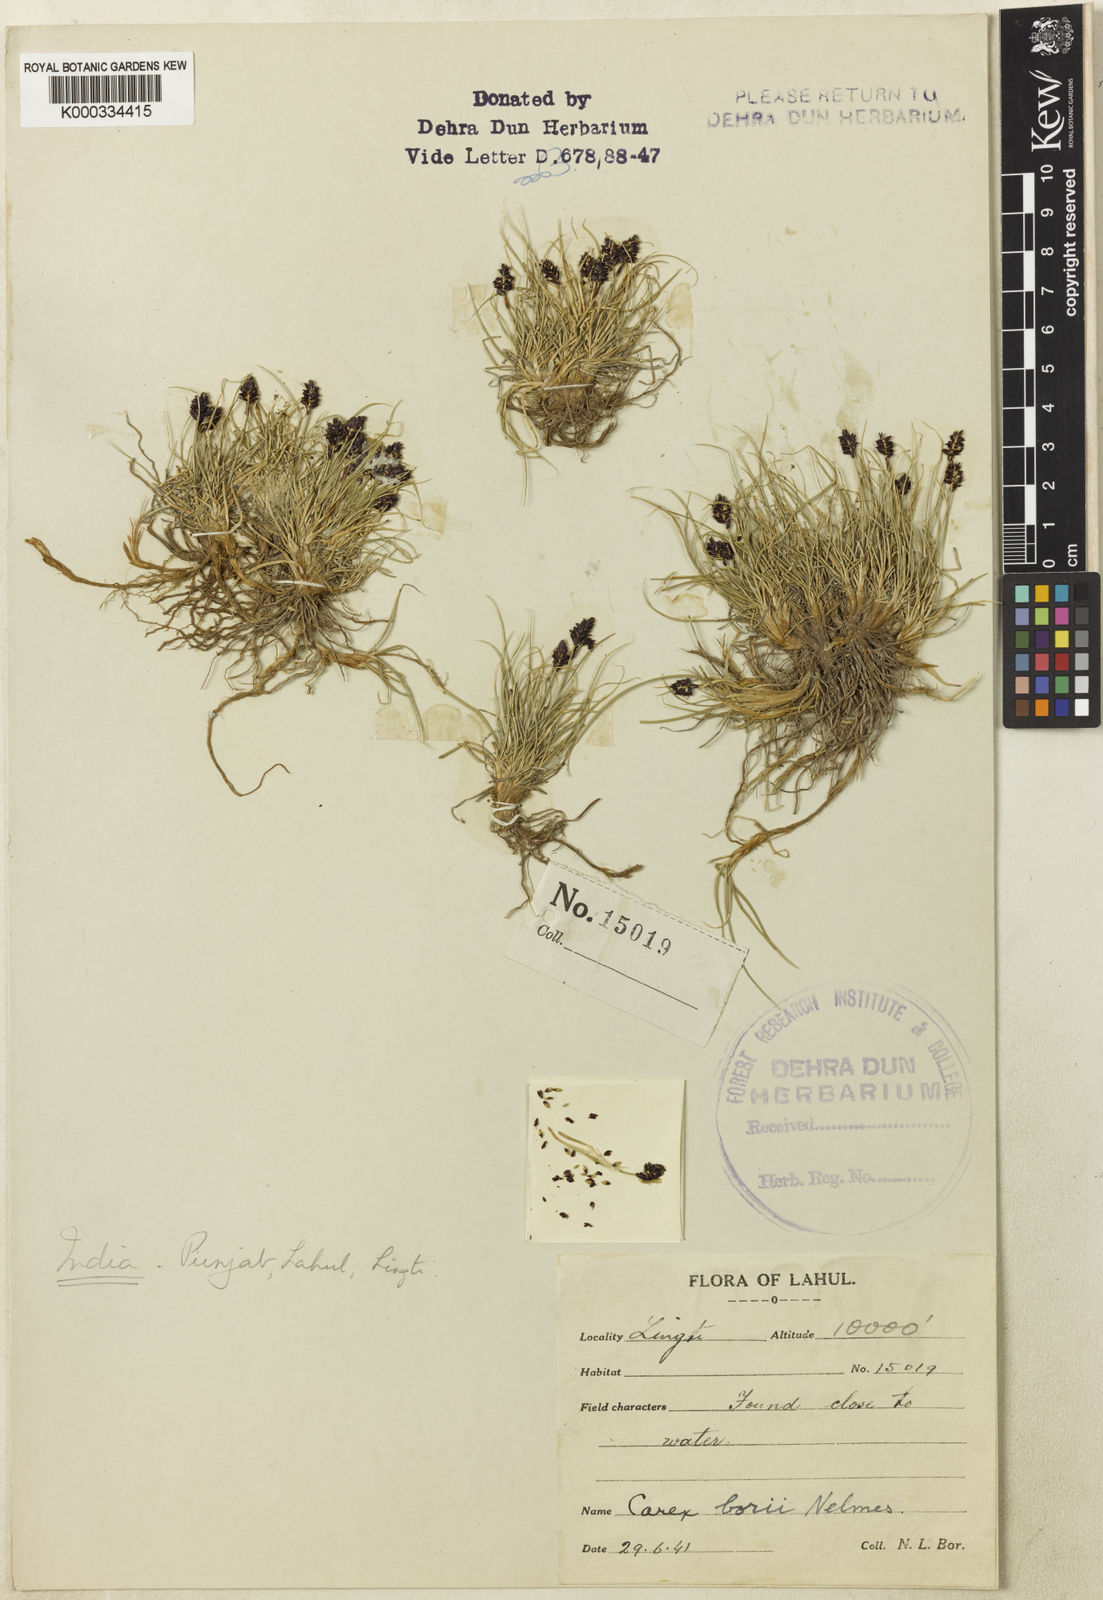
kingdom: Plantae
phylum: Tracheophyta
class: Liliopsida
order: Poales
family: Cyperaceae
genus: Carex
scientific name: Carex borii
